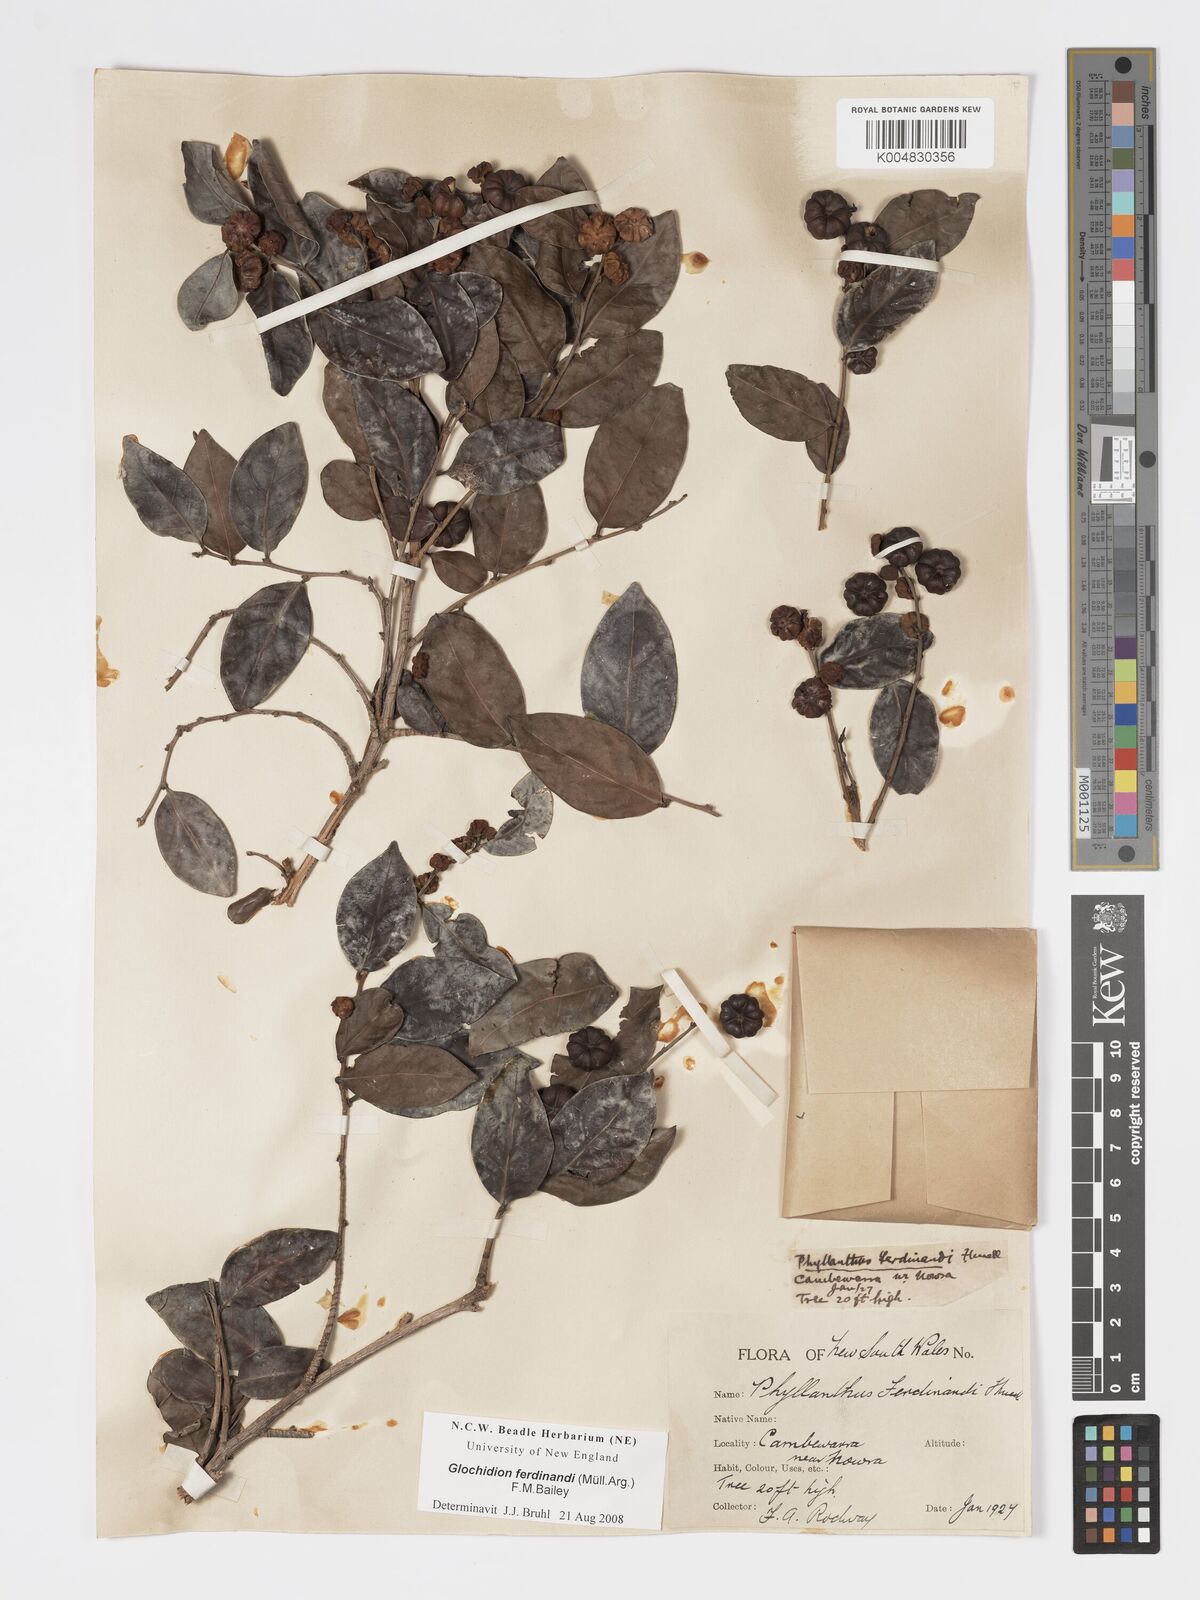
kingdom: Plantae
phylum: Tracheophyta
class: Magnoliopsida
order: Malpighiales
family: Phyllanthaceae
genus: Glochidion
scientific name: Glochidion ferdinandi
